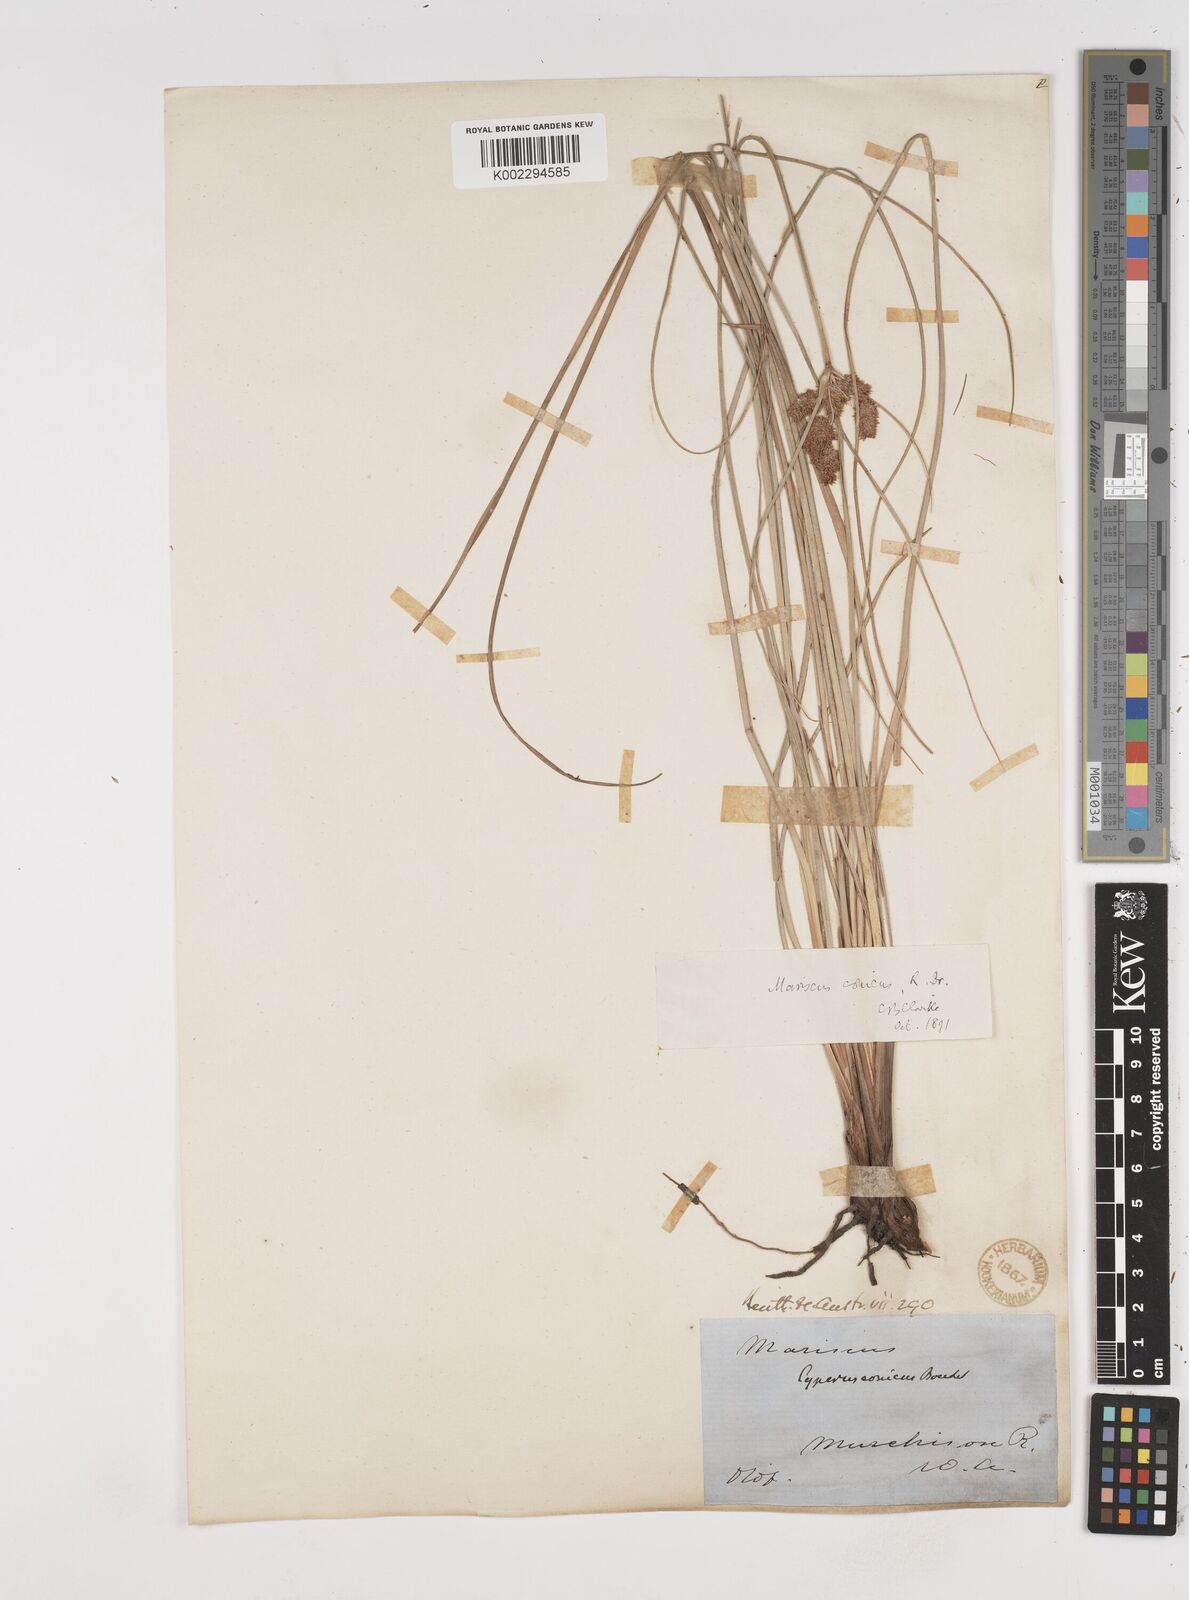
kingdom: Plantae
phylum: Tracheophyta
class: Liliopsida
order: Poales
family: Cyperaceae
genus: Cyperus
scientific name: Cyperus conicus
